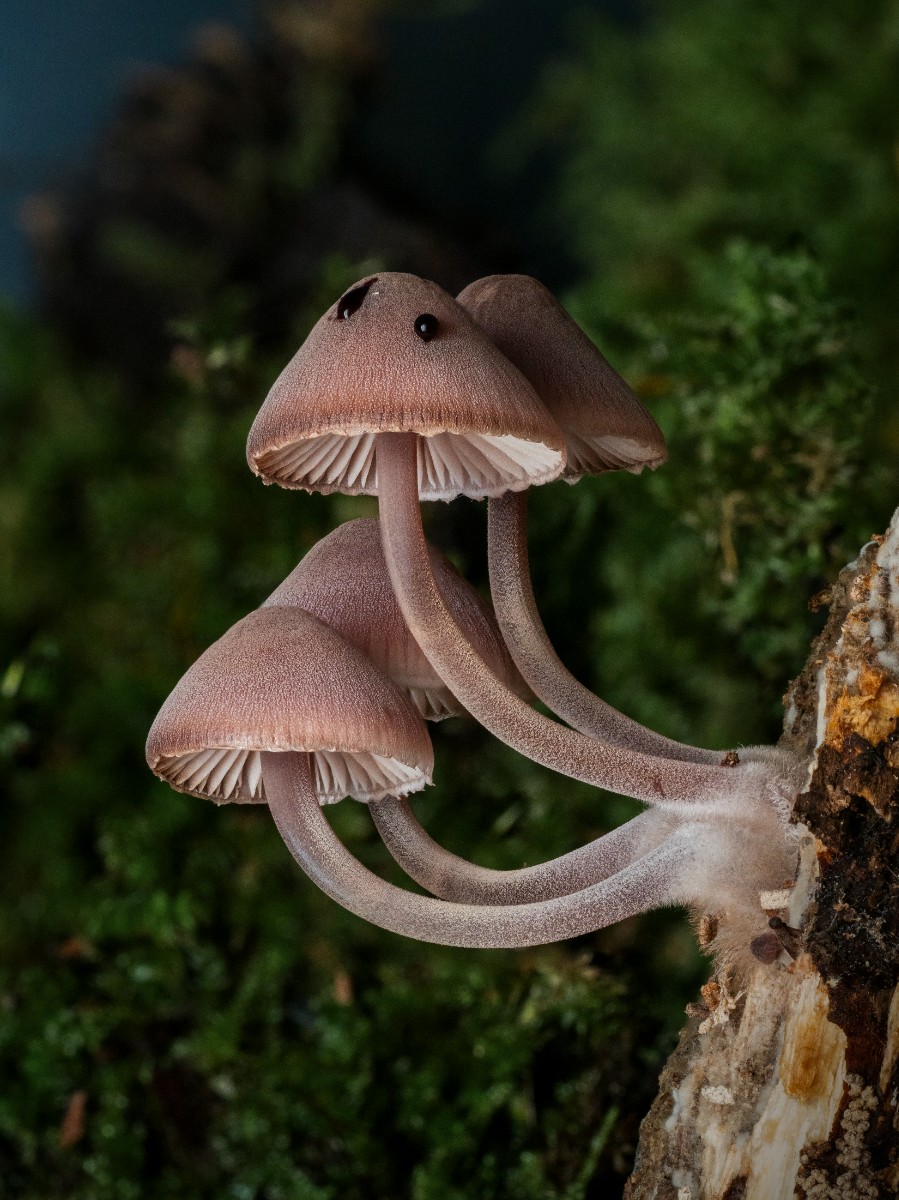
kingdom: Fungi
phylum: Basidiomycota
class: Agaricomycetes
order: Agaricales
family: Mycenaceae
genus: Mycena
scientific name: Mycena haematopus
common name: blødende huesvamp
